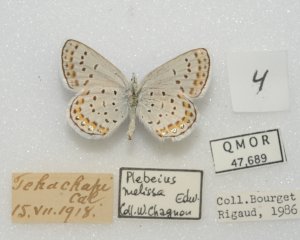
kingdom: Animalia
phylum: Arthropoda
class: Insecta
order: Lepidoptera
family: Lycaenidae
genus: Lycaeides
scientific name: Lycaeides melissa
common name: Melissa Blue
